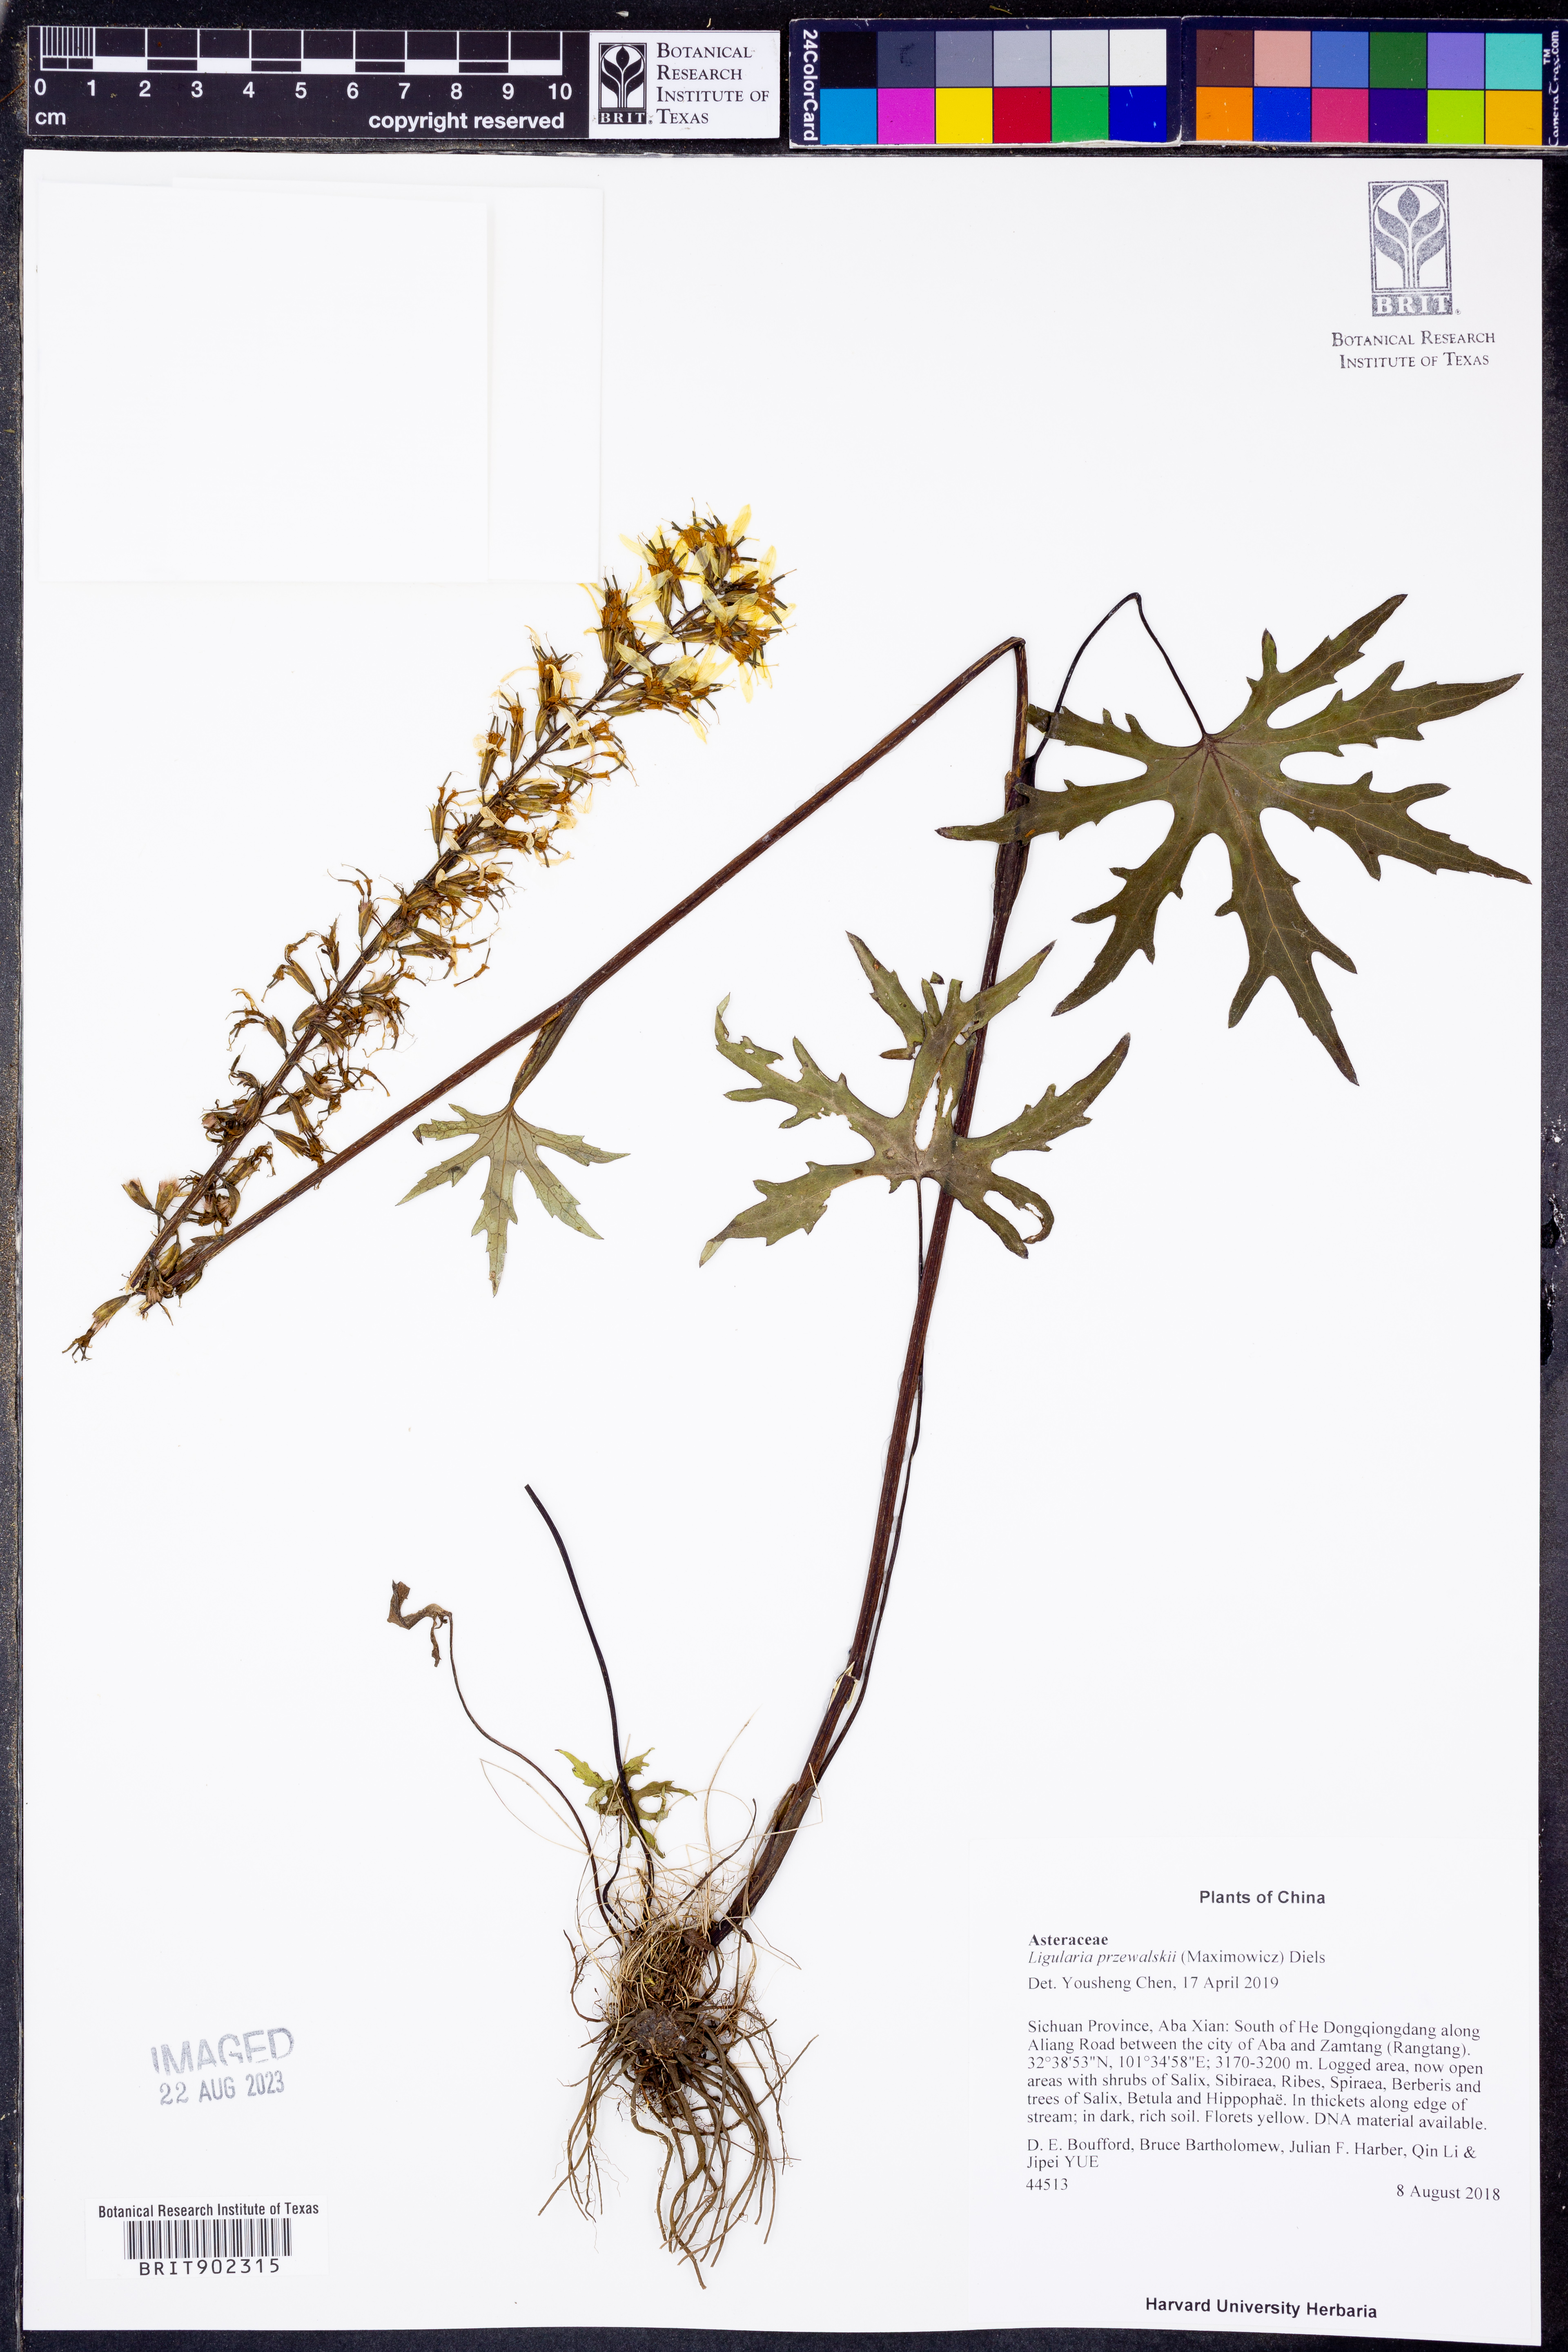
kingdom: Plantae
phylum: Tracheophyta
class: Magnoliopsida
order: Asterales
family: Asteraceae
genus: Ligularia
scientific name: Ligularia przewalskii
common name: Przewalski's leopardplant
